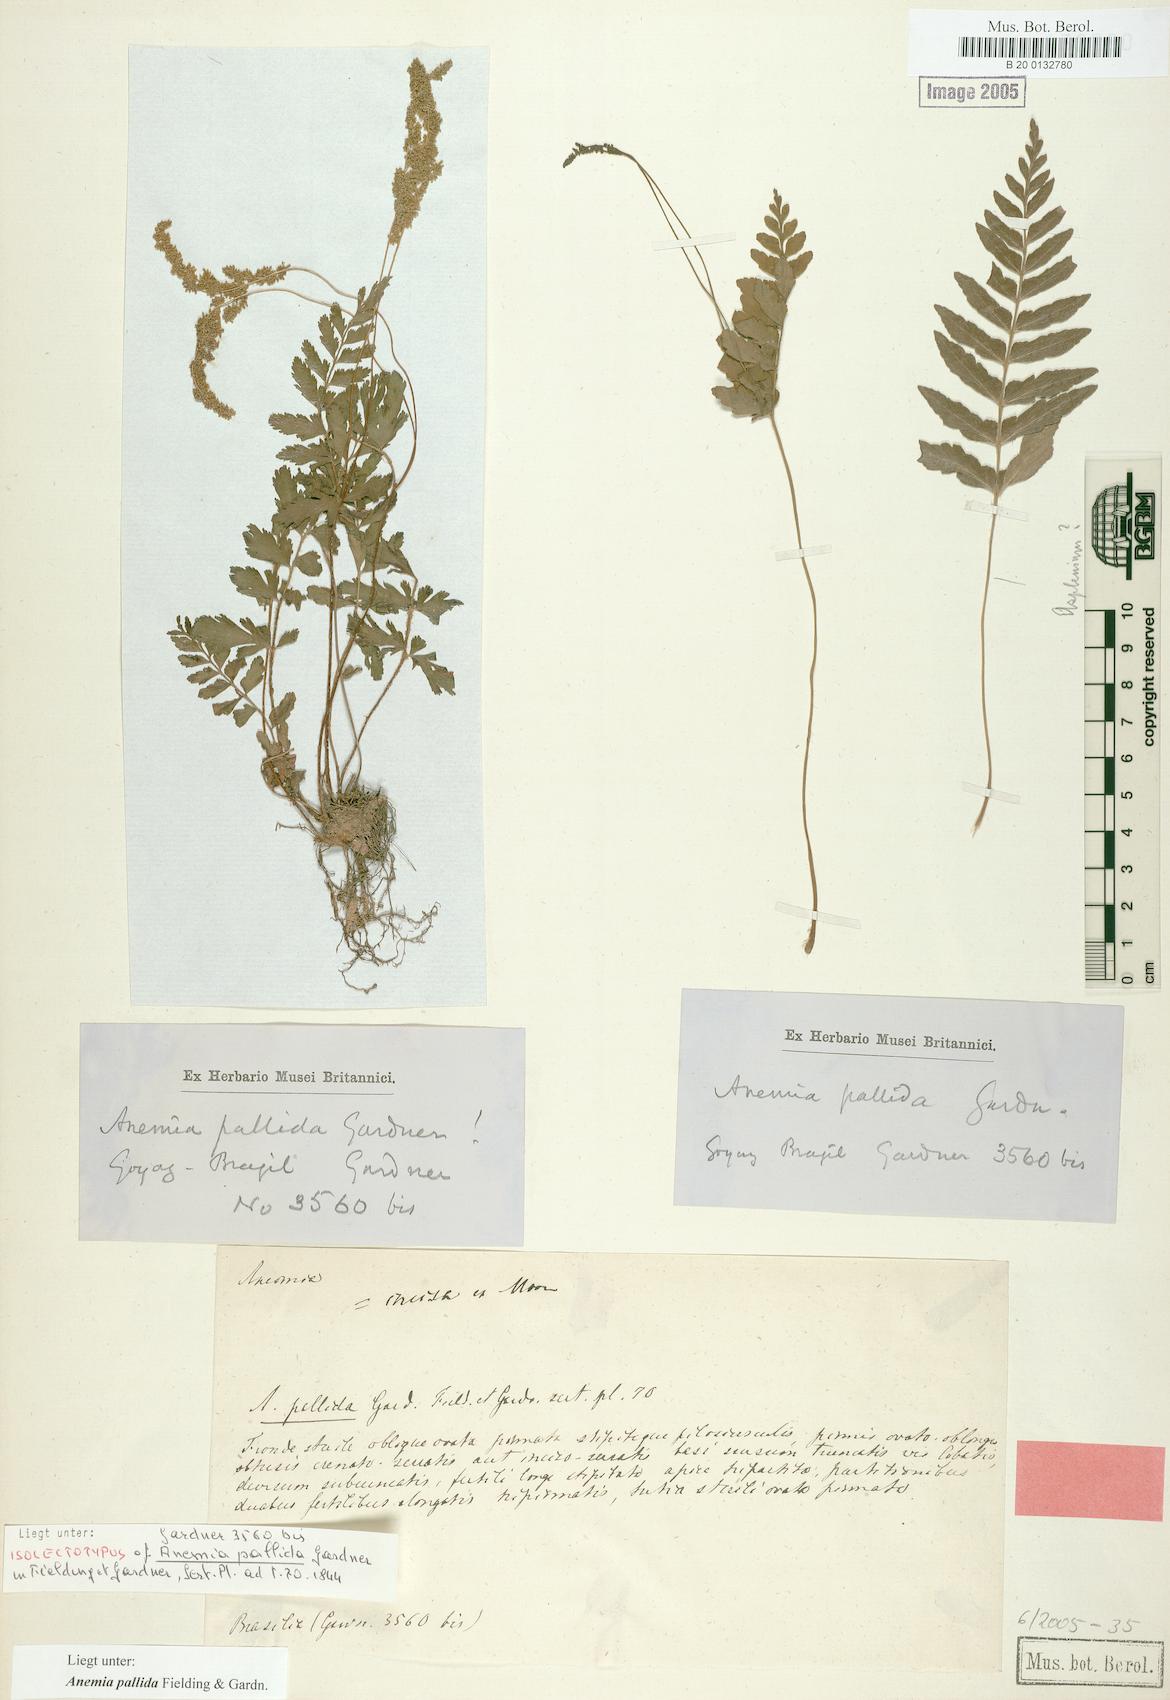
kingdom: Plantae
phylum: Tracheophyta
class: Polypodiopsida
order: Schizaeales
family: Anemiaceae
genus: Anemia
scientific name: Anemia hispida
